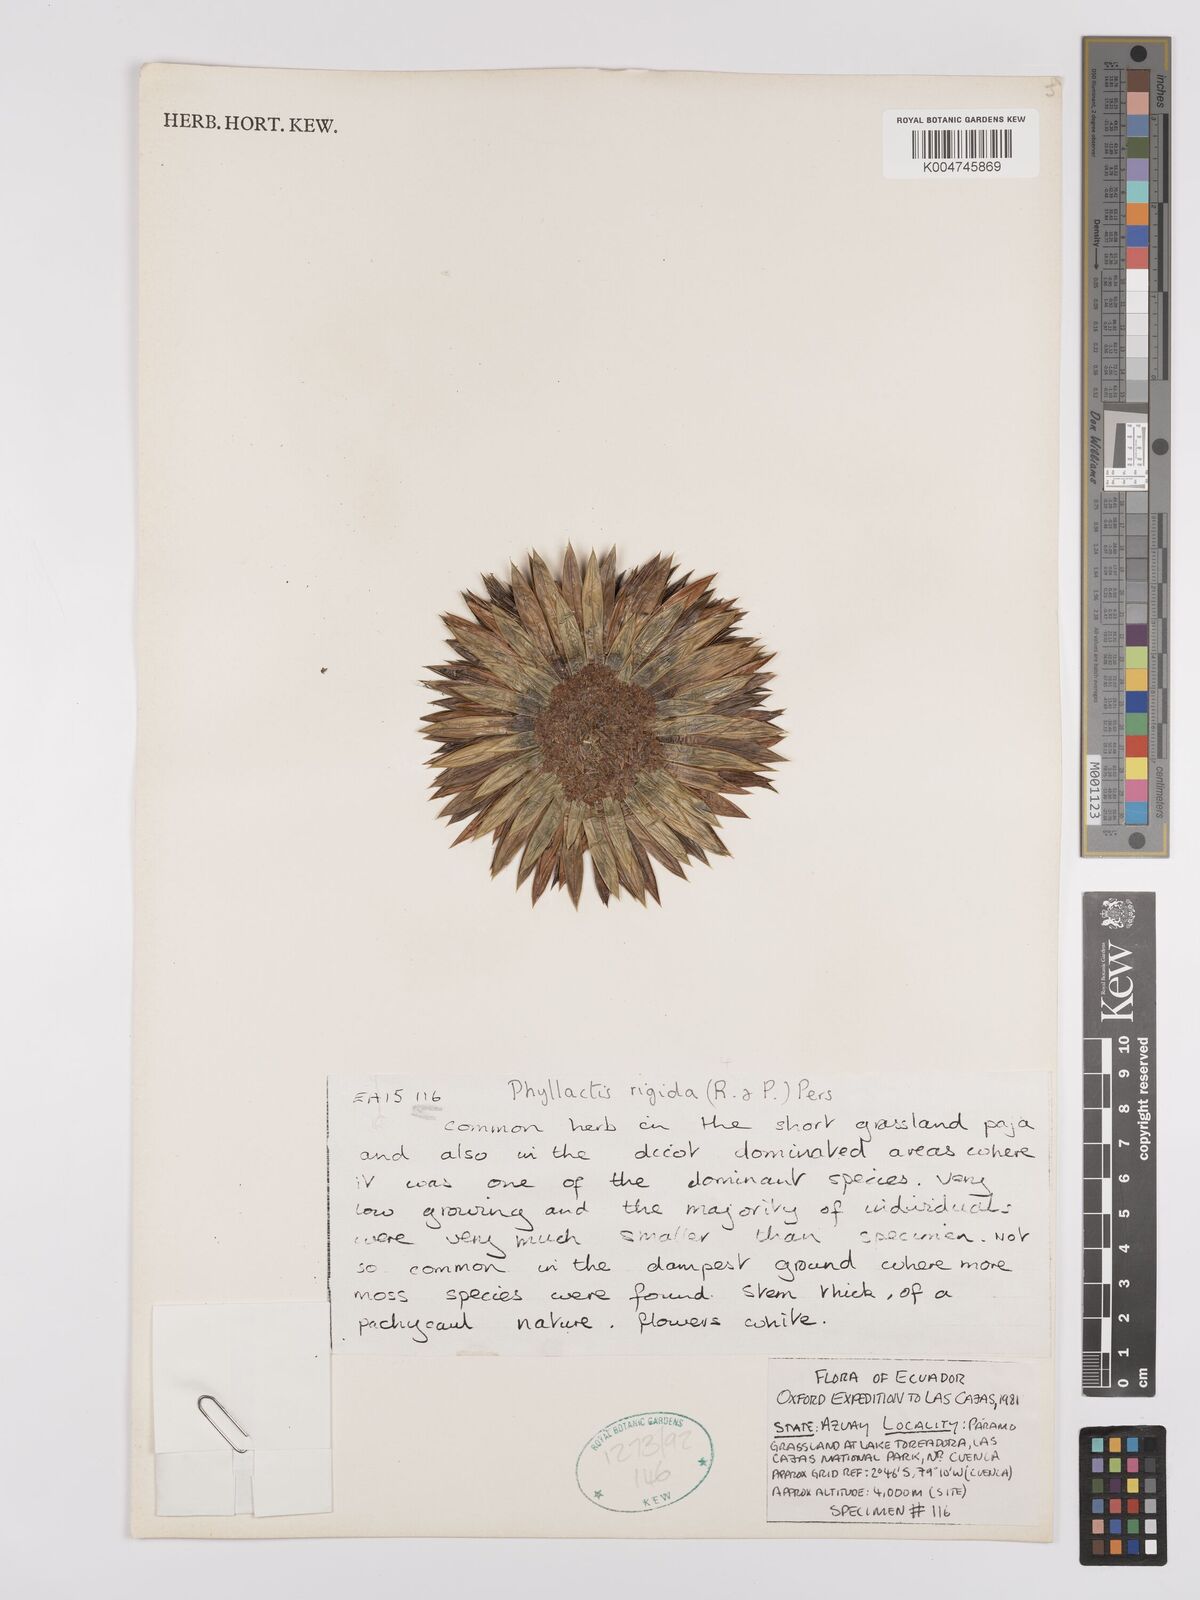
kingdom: Plantae
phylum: Tracheophyta
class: Magnoliopsida
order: Dipsacales
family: Caprifoliaceae
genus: Valeriana
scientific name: Valeriana rigida
